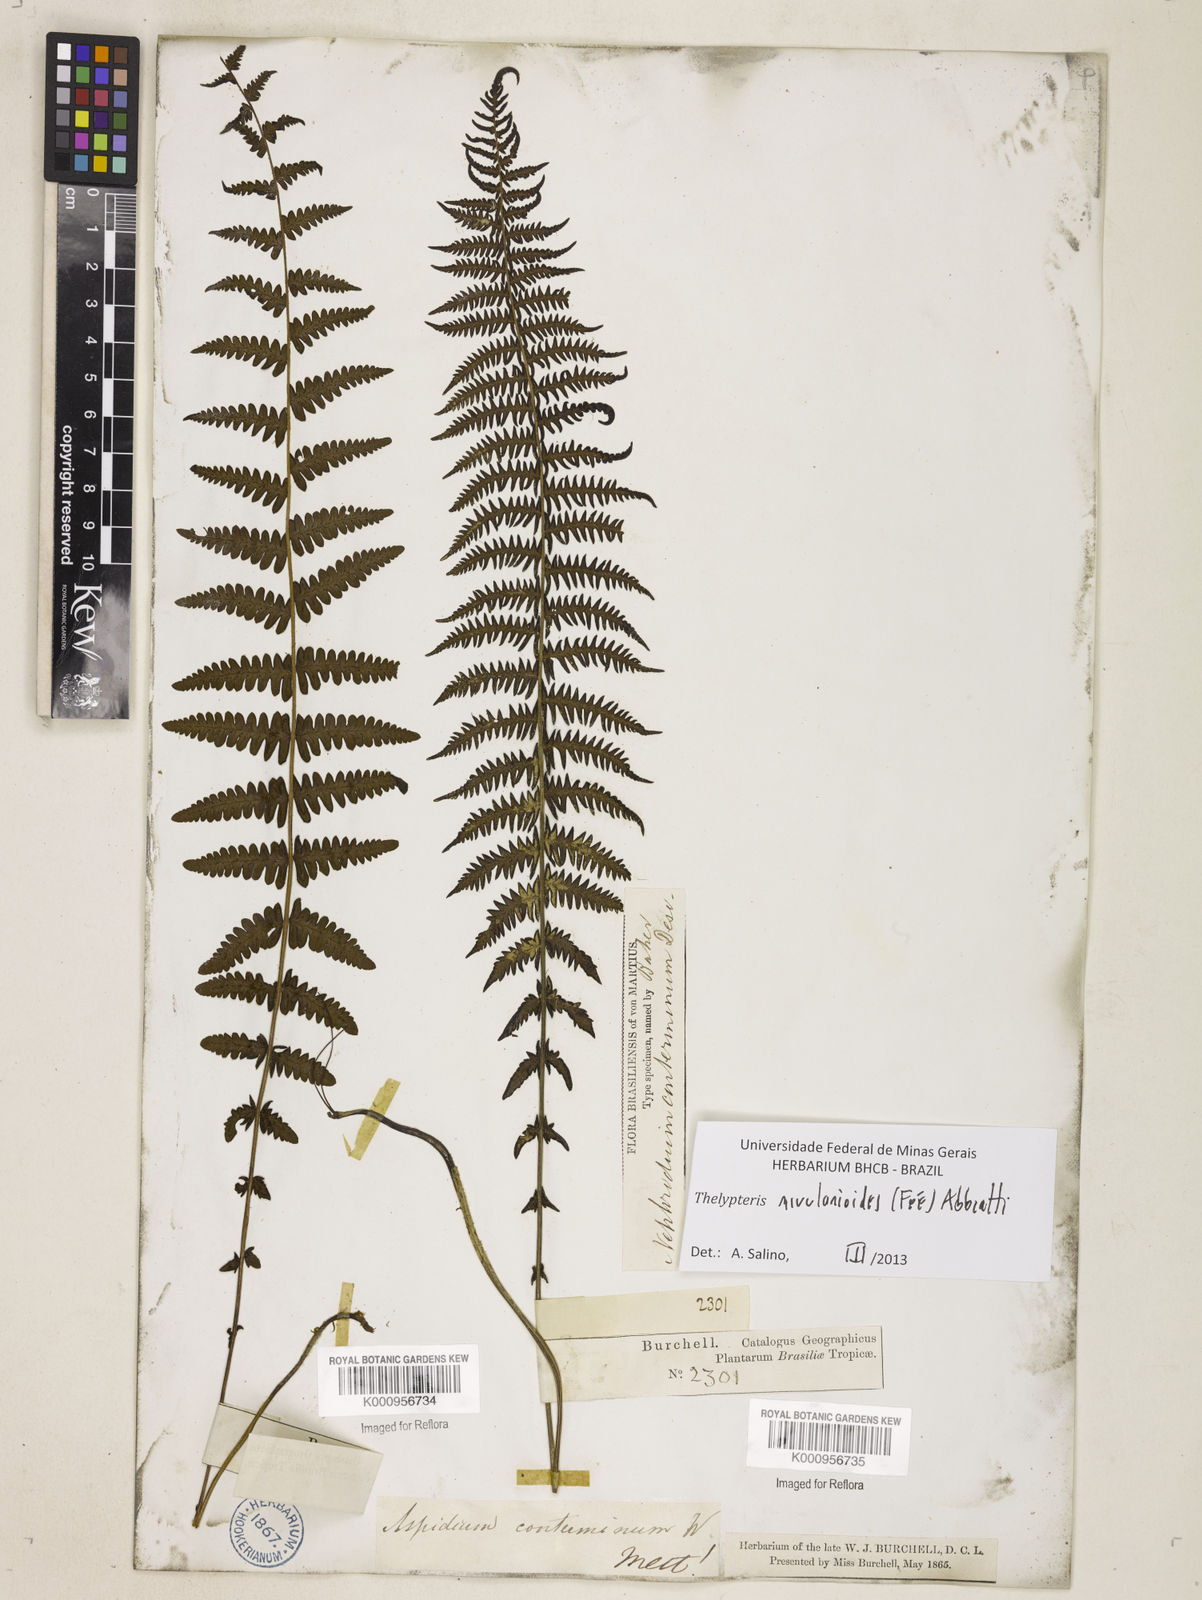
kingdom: Plantae
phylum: Tracheophyta
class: Polypodiopsida
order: Polypodiales
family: Thelypteridaceae
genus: Amauropelta
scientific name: Amauropelta rivularioides
